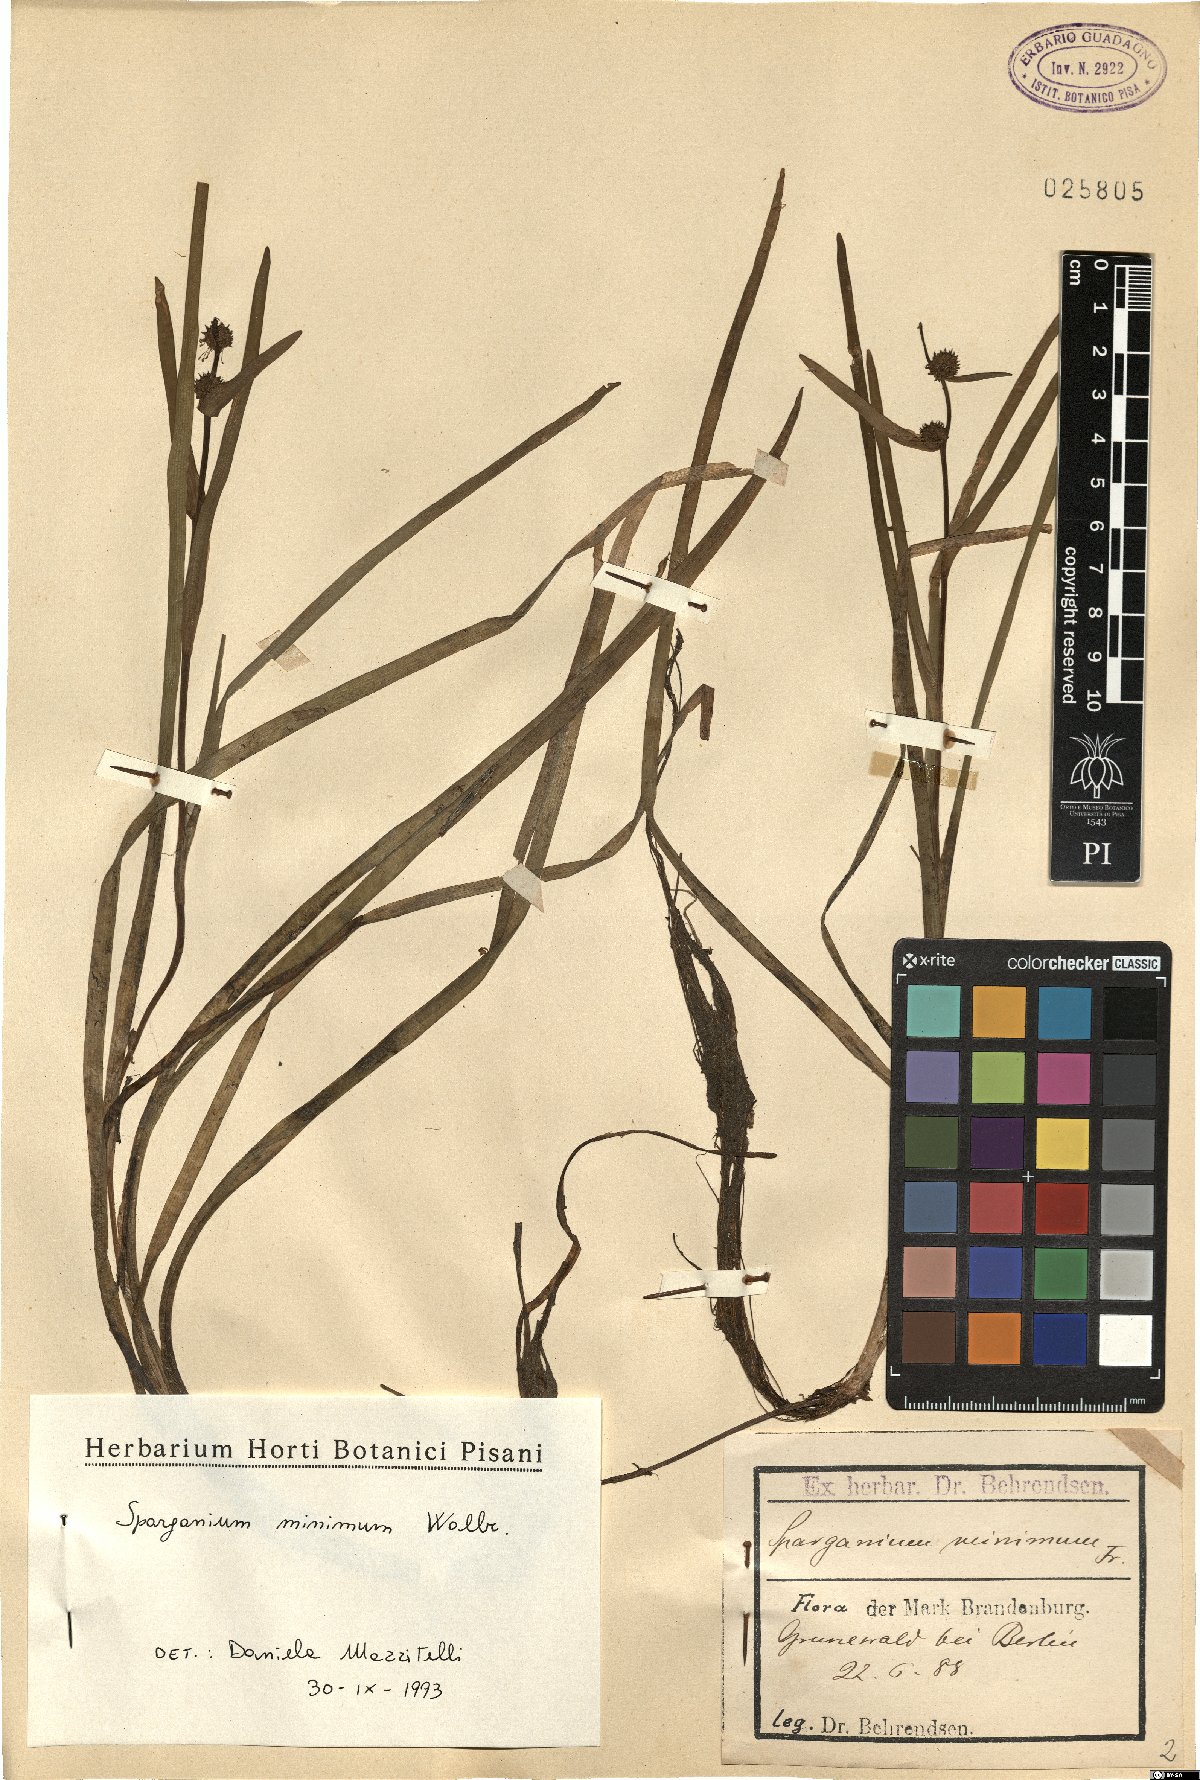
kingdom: Plantae
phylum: Tracheophyta
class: Liliopsida
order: Poales
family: Typhaceae
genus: Sparganium
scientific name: Sparganium natans
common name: Least bur-reed
